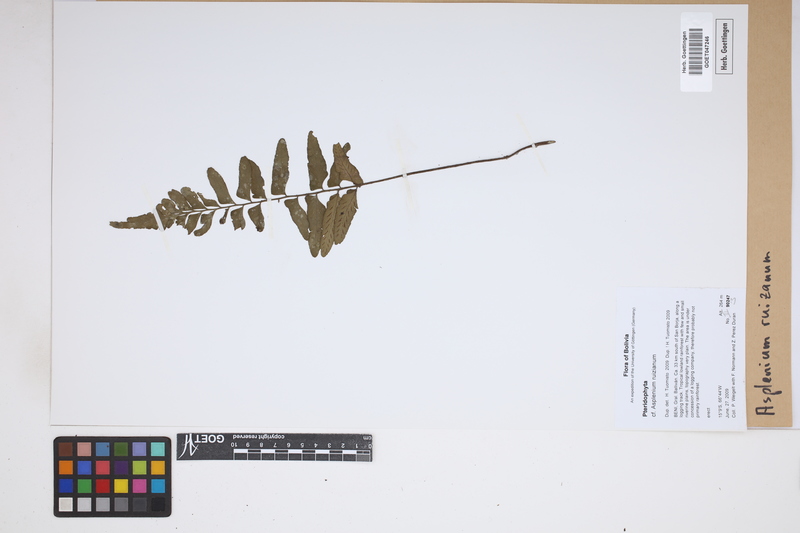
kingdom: Plantae
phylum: Tracheophyta
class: Polypodiopsida
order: Polypodiales
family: Aspleniaceae
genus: Asplenium
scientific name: Asplenium ruizianum
